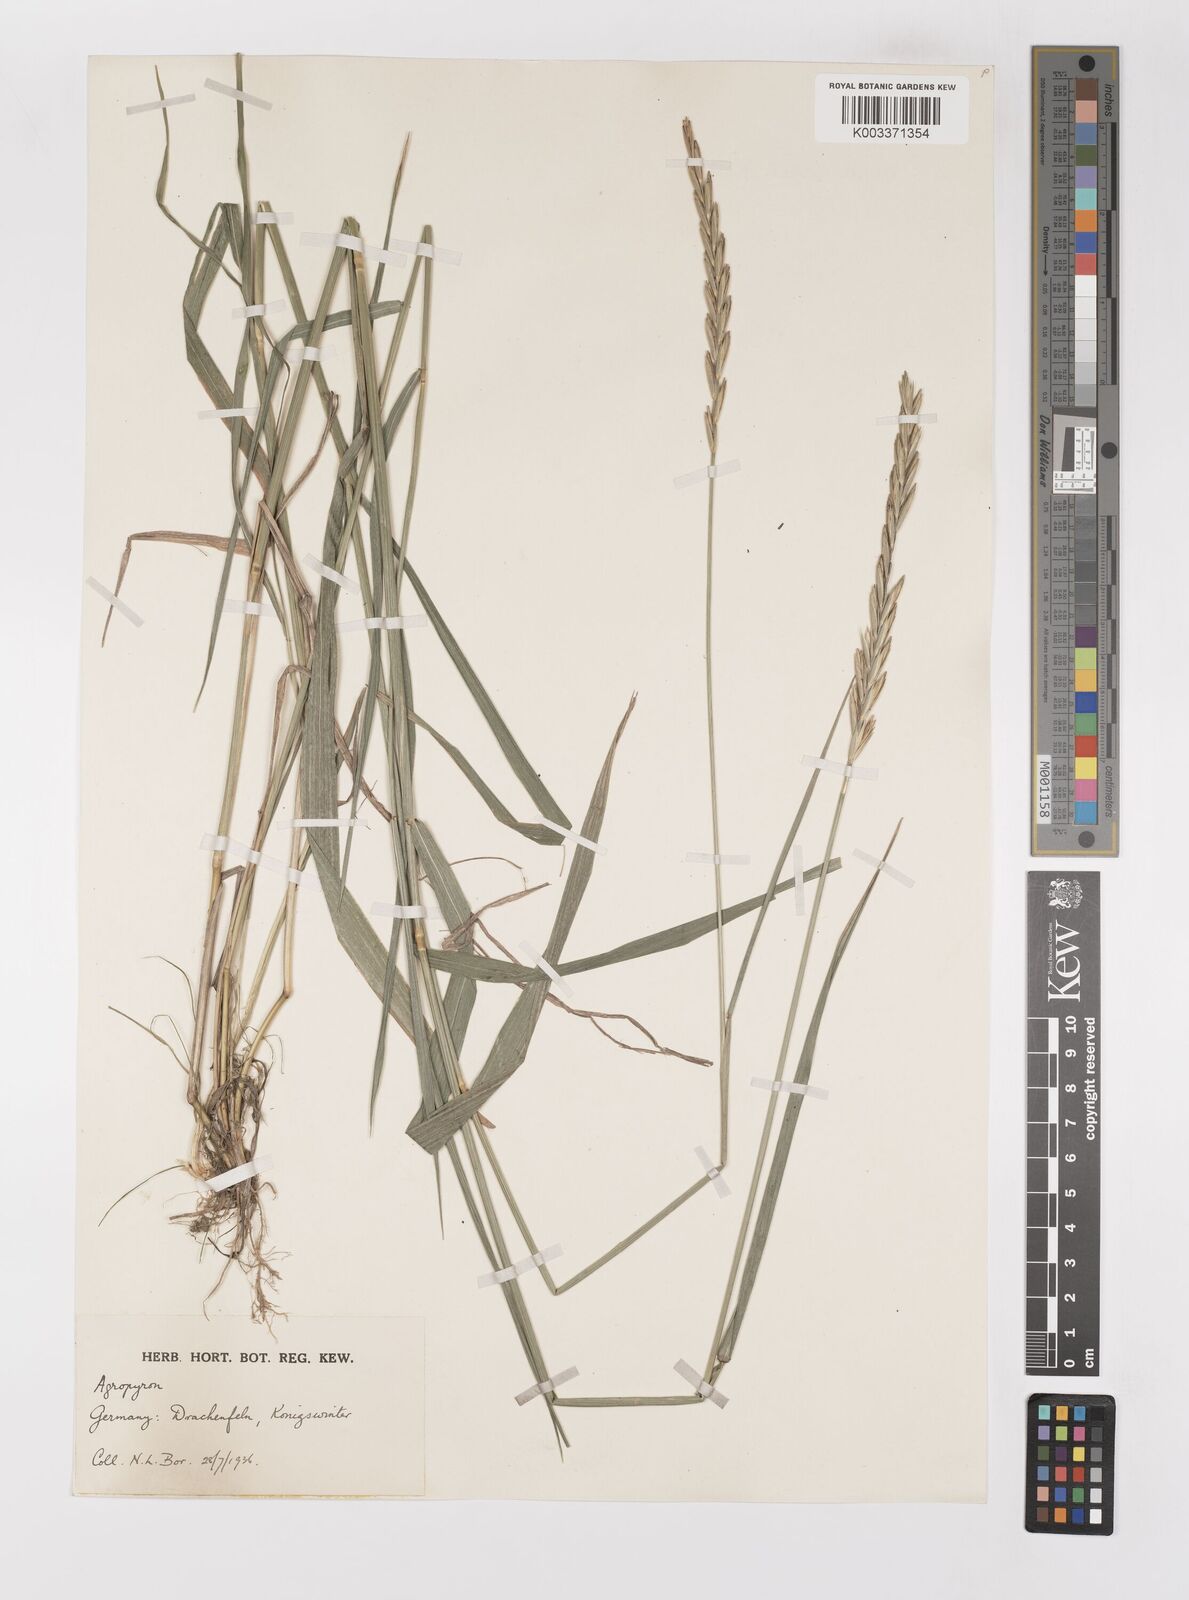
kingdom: Plantae
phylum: Tracheophyta
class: Liliopsida
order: Poales
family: Poaceae
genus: Elymus
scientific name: Elymus repens
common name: Quackgrass
